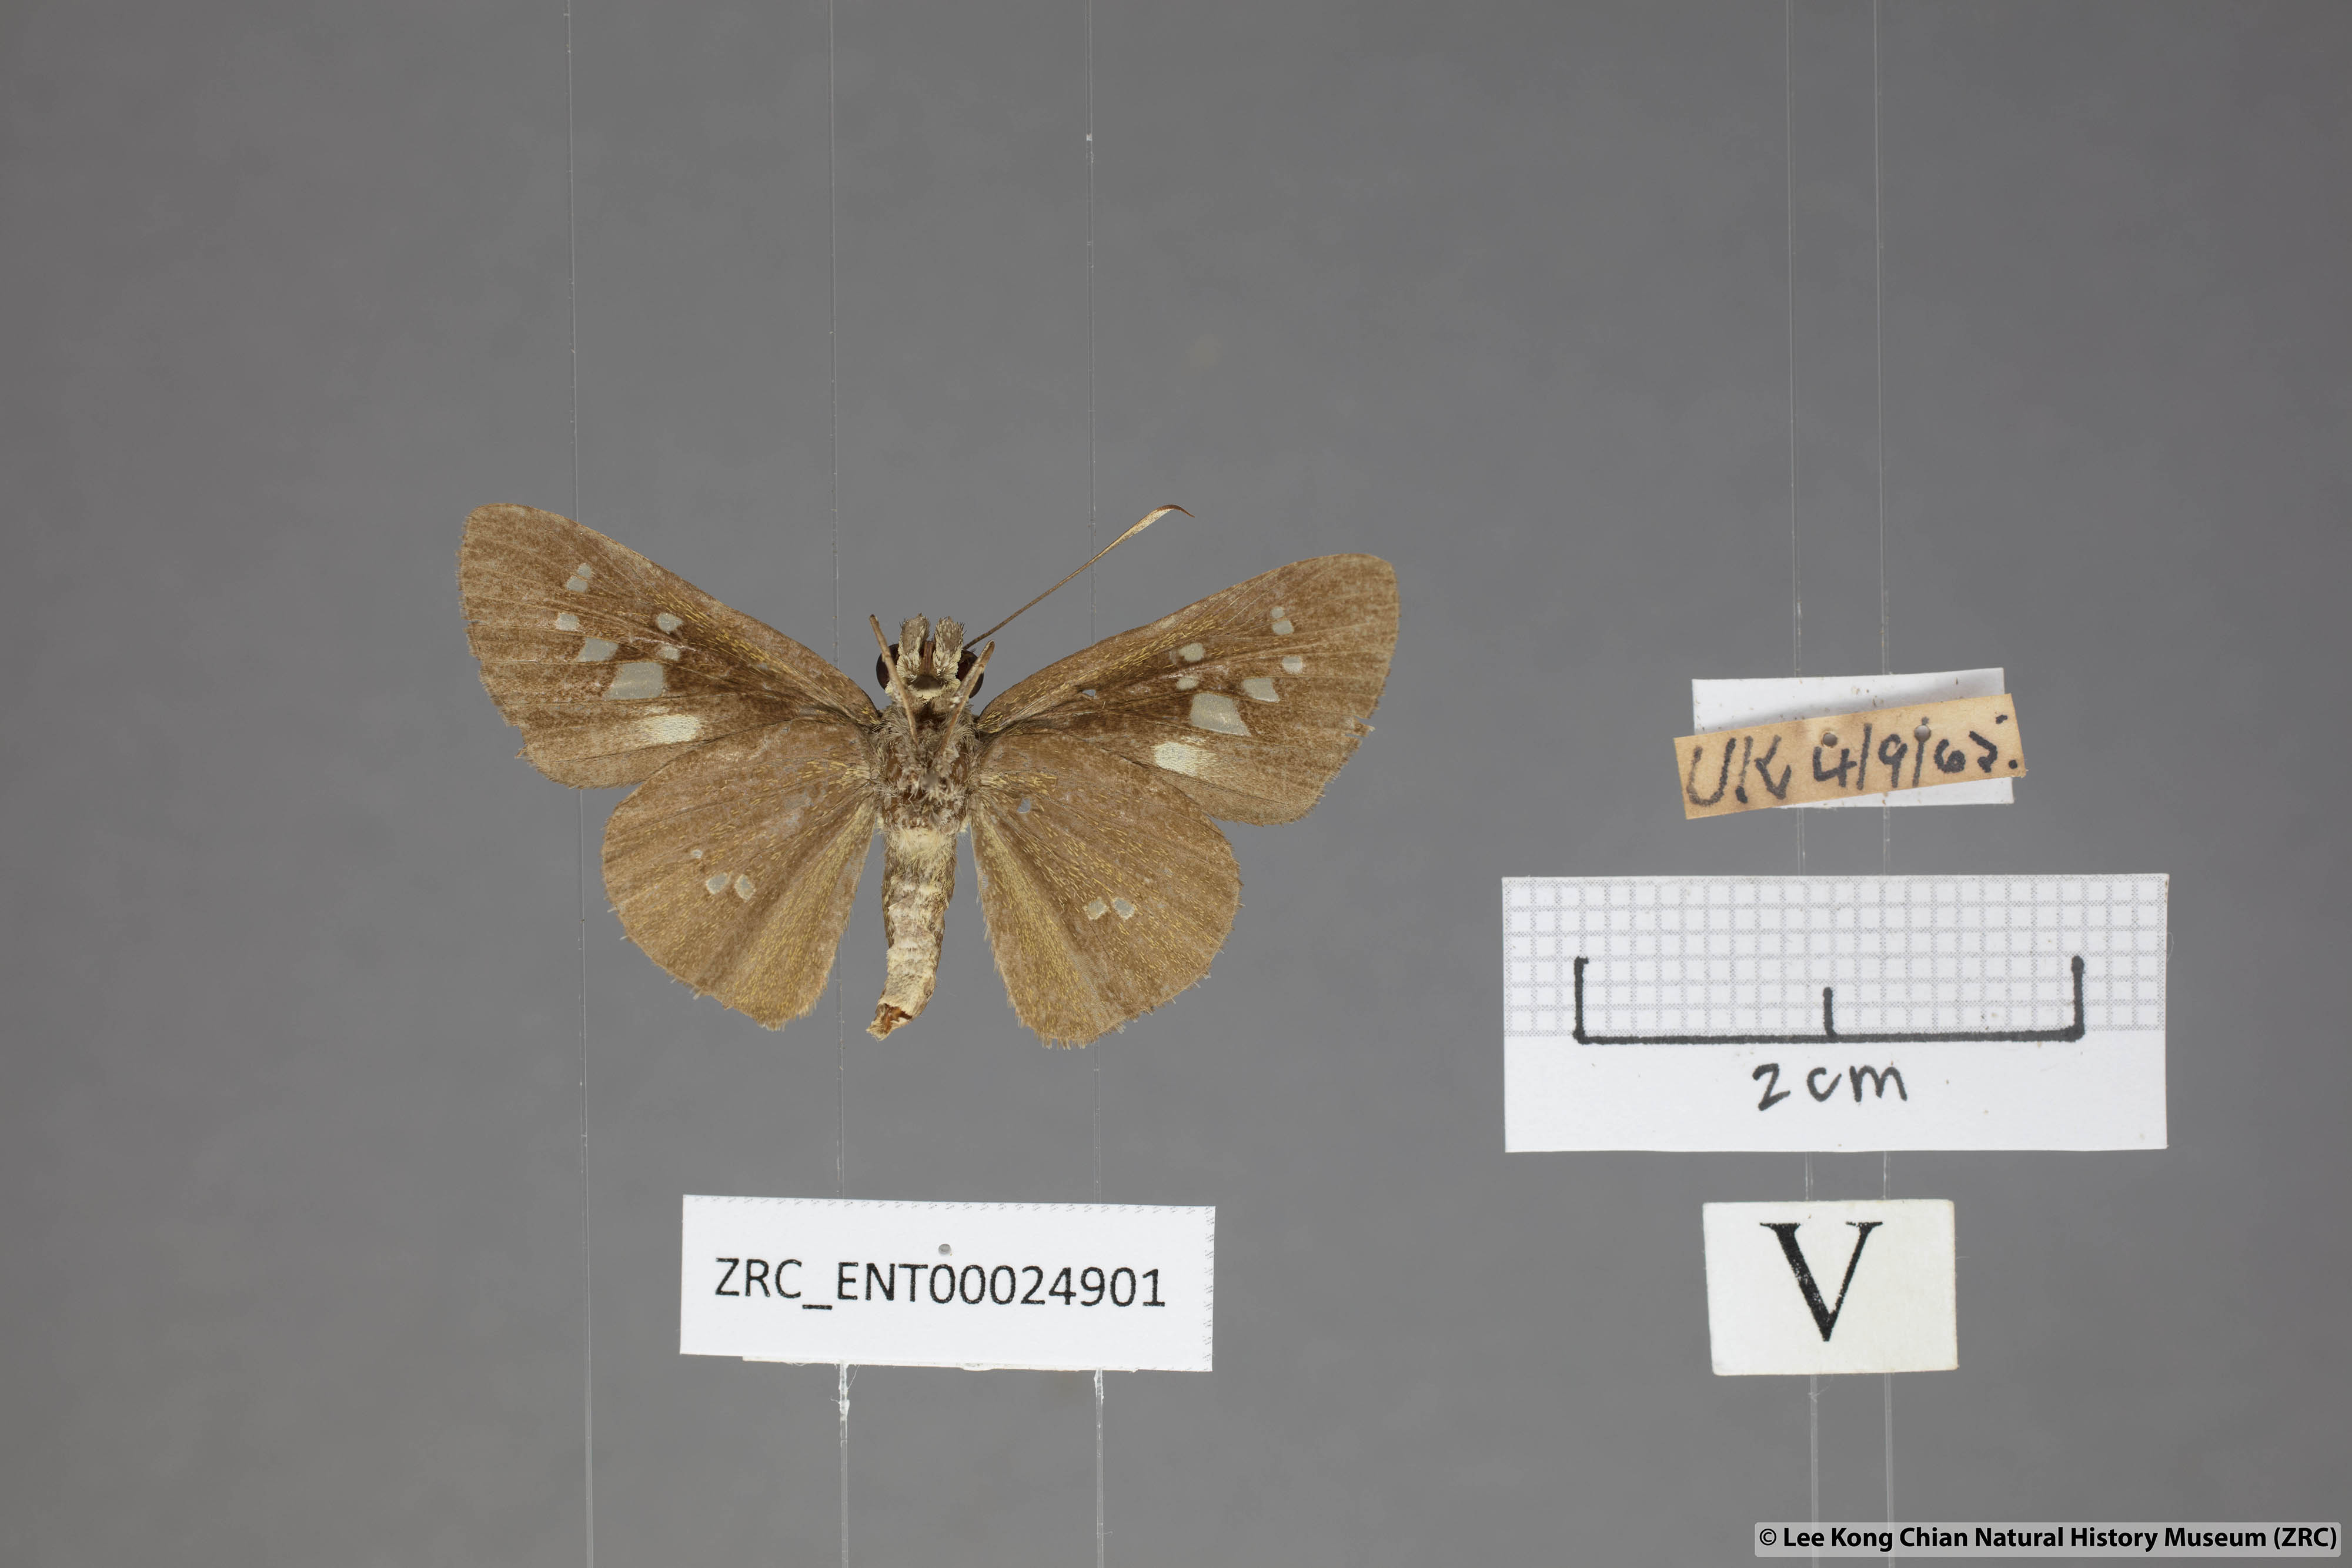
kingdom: Animalia
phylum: Arthropoda
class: Insecta
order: Lepidoptera
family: Hesperiidae
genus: Isma
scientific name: Isma umbrosa
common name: Large long-banded flitter
